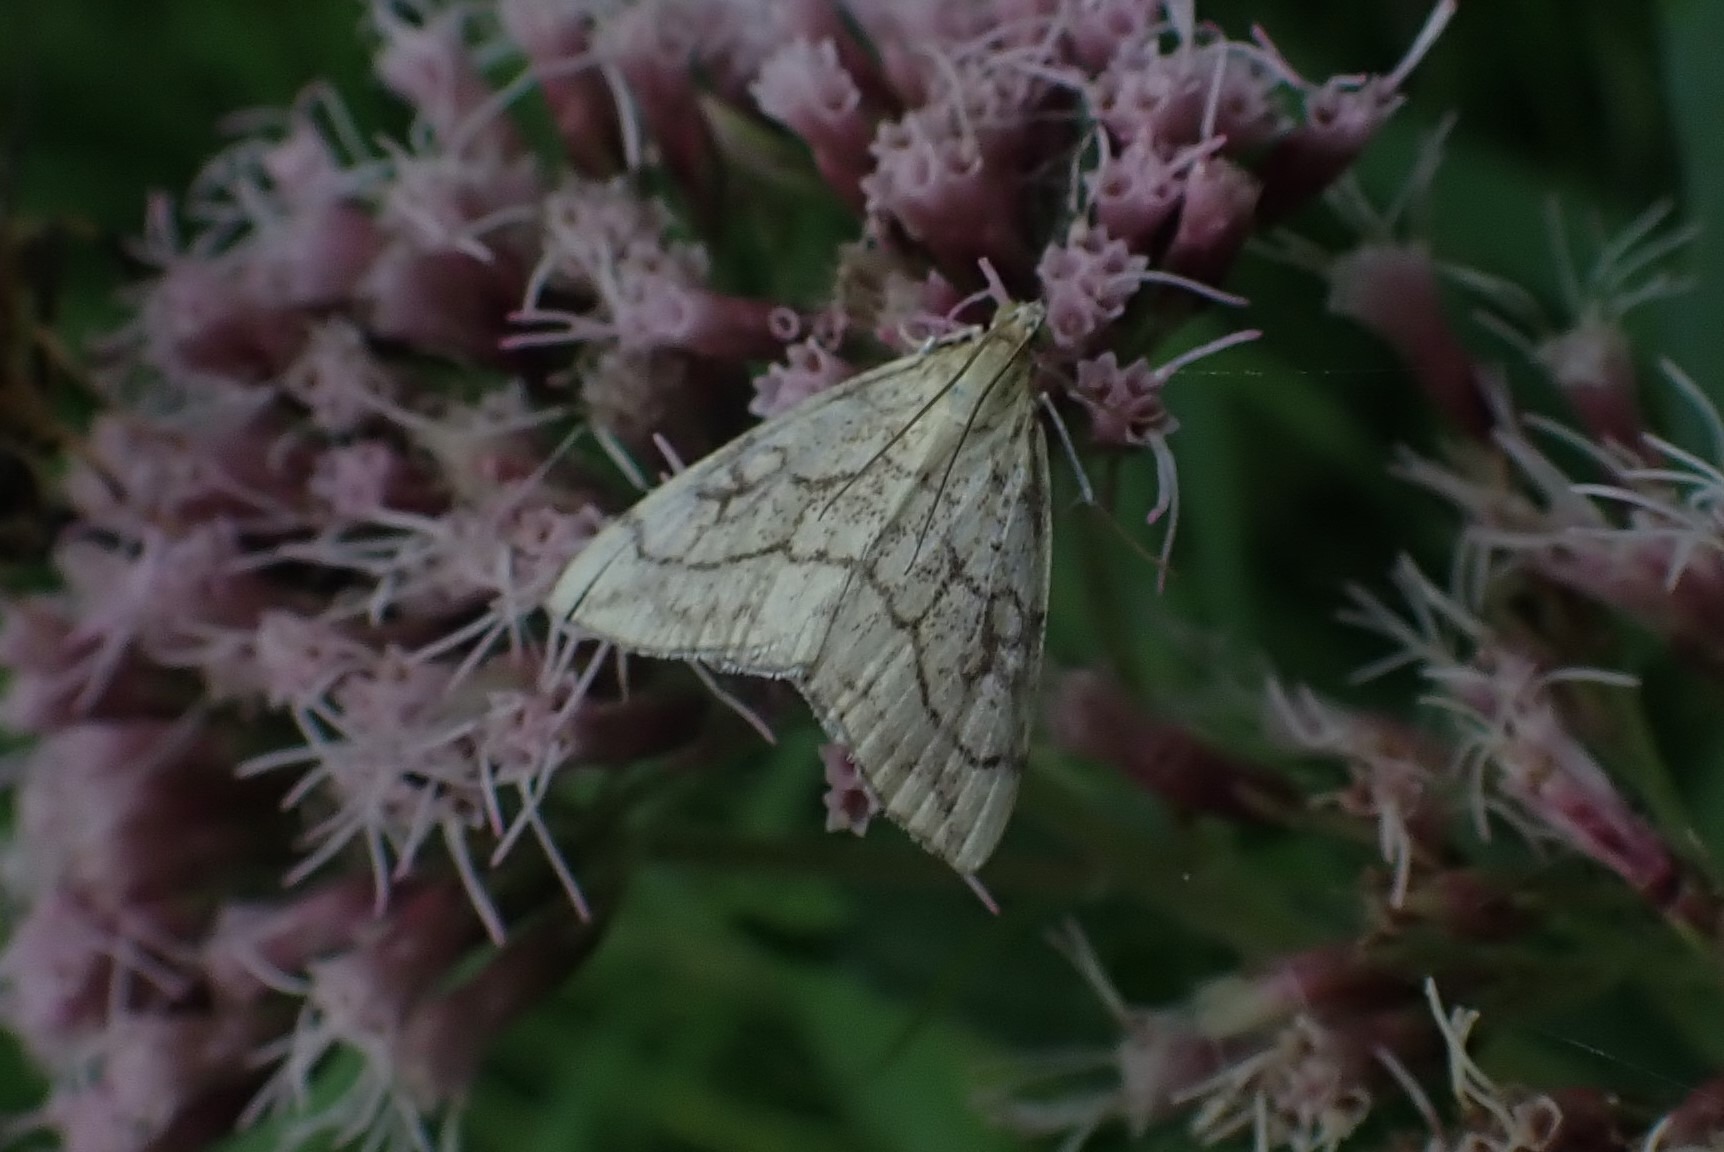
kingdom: Animalia
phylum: Arthropoda
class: Insecta
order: Lepidoptera
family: Crambidae
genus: Evergestis
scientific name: Evergestis pallidata
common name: Vinterkarsehalvmøl
